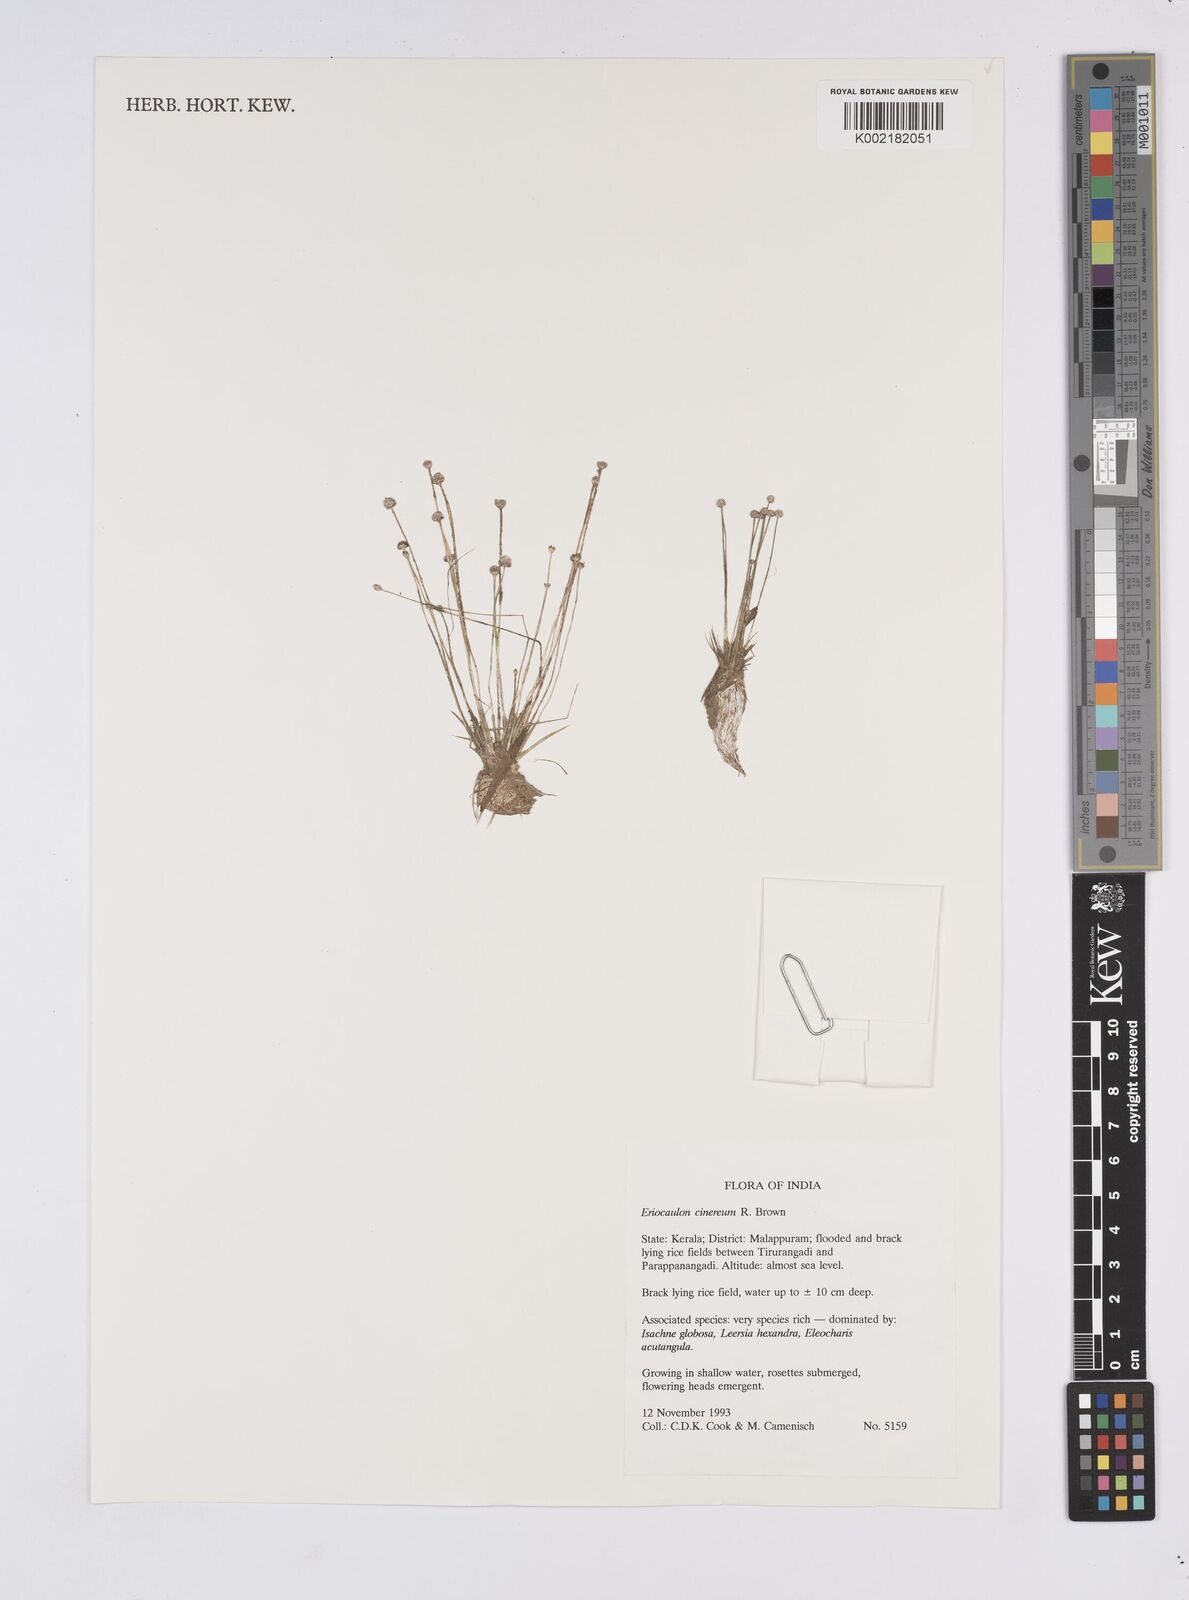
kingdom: Plantae
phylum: Tracheophyta
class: Liliopsida
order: Poales
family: Eriocaulaceae
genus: Eriocaulon
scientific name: Eriocaulon cinereum
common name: Ashy pipewort
